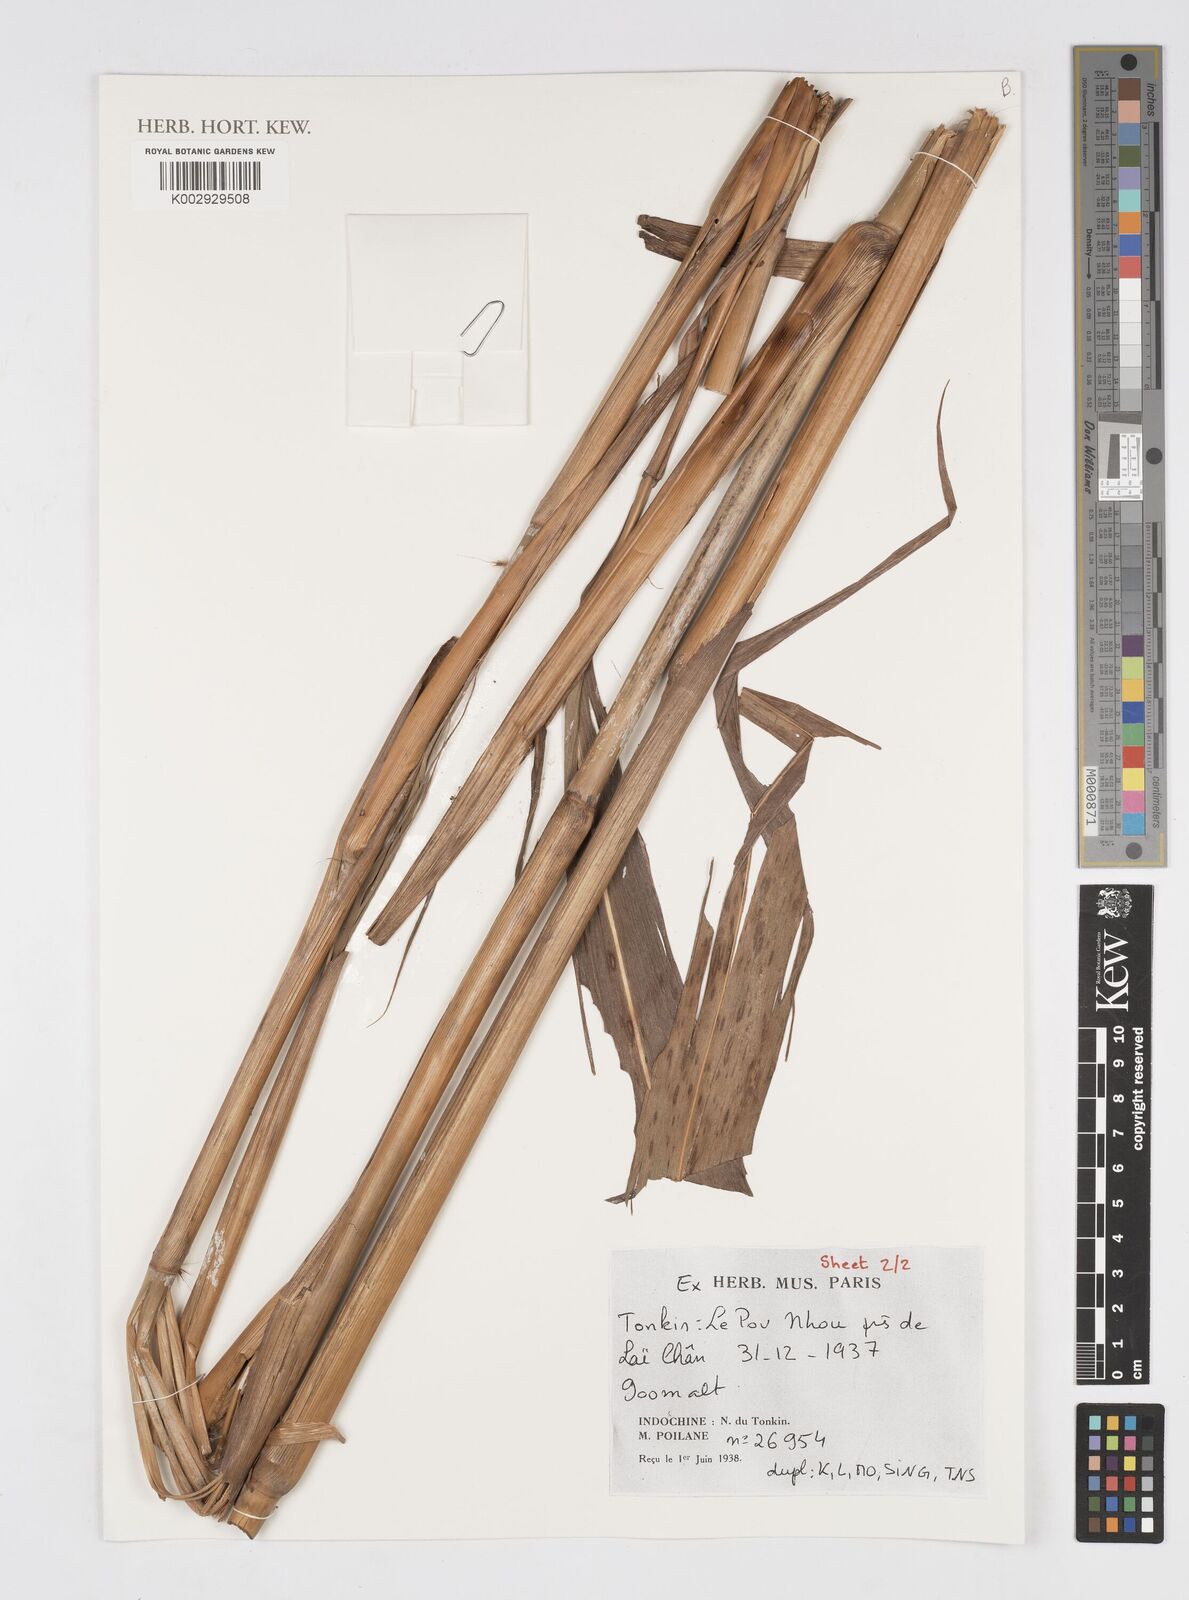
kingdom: Plantae
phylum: Tracheophyta
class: Liliopsida
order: Poales
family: Poaceae
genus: Saccharum
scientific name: Saccharum
